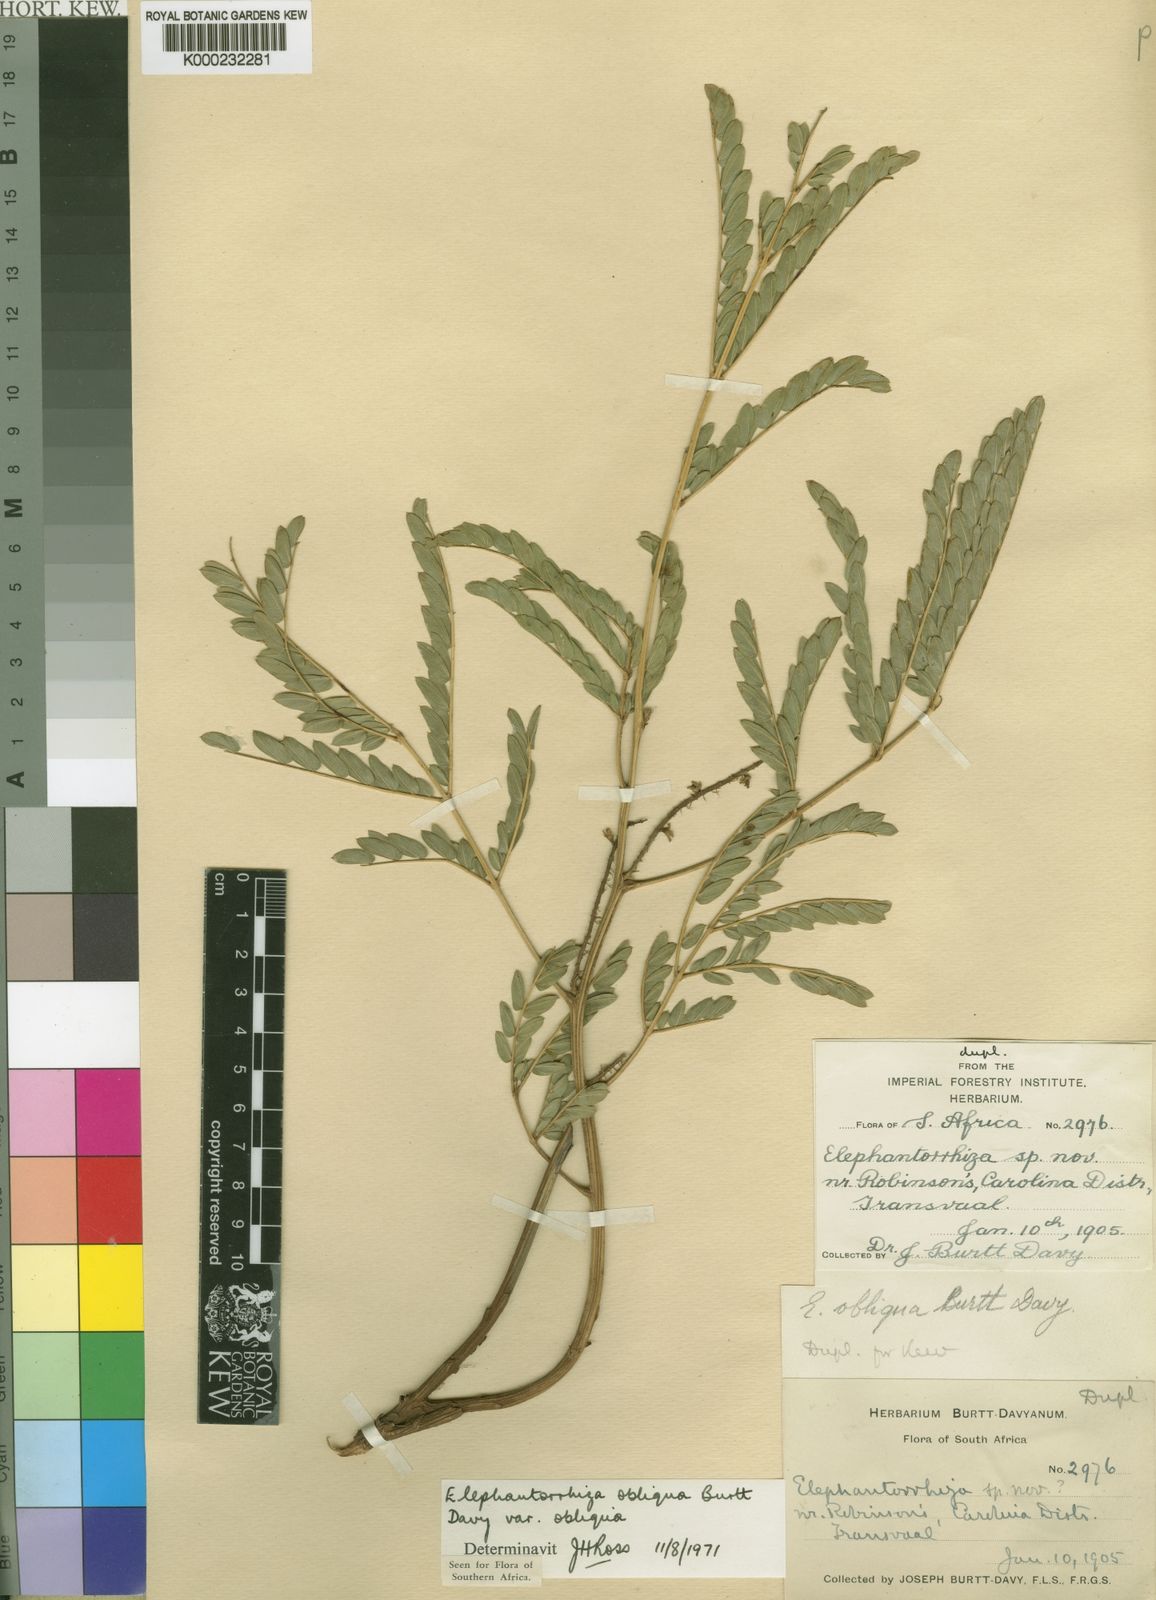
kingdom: Plantae
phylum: Tracheophyta
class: Magnoliopsida
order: Fabales
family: Fabaceae
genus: Elephantorrhiza
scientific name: Elephantorrhiza obliqua
